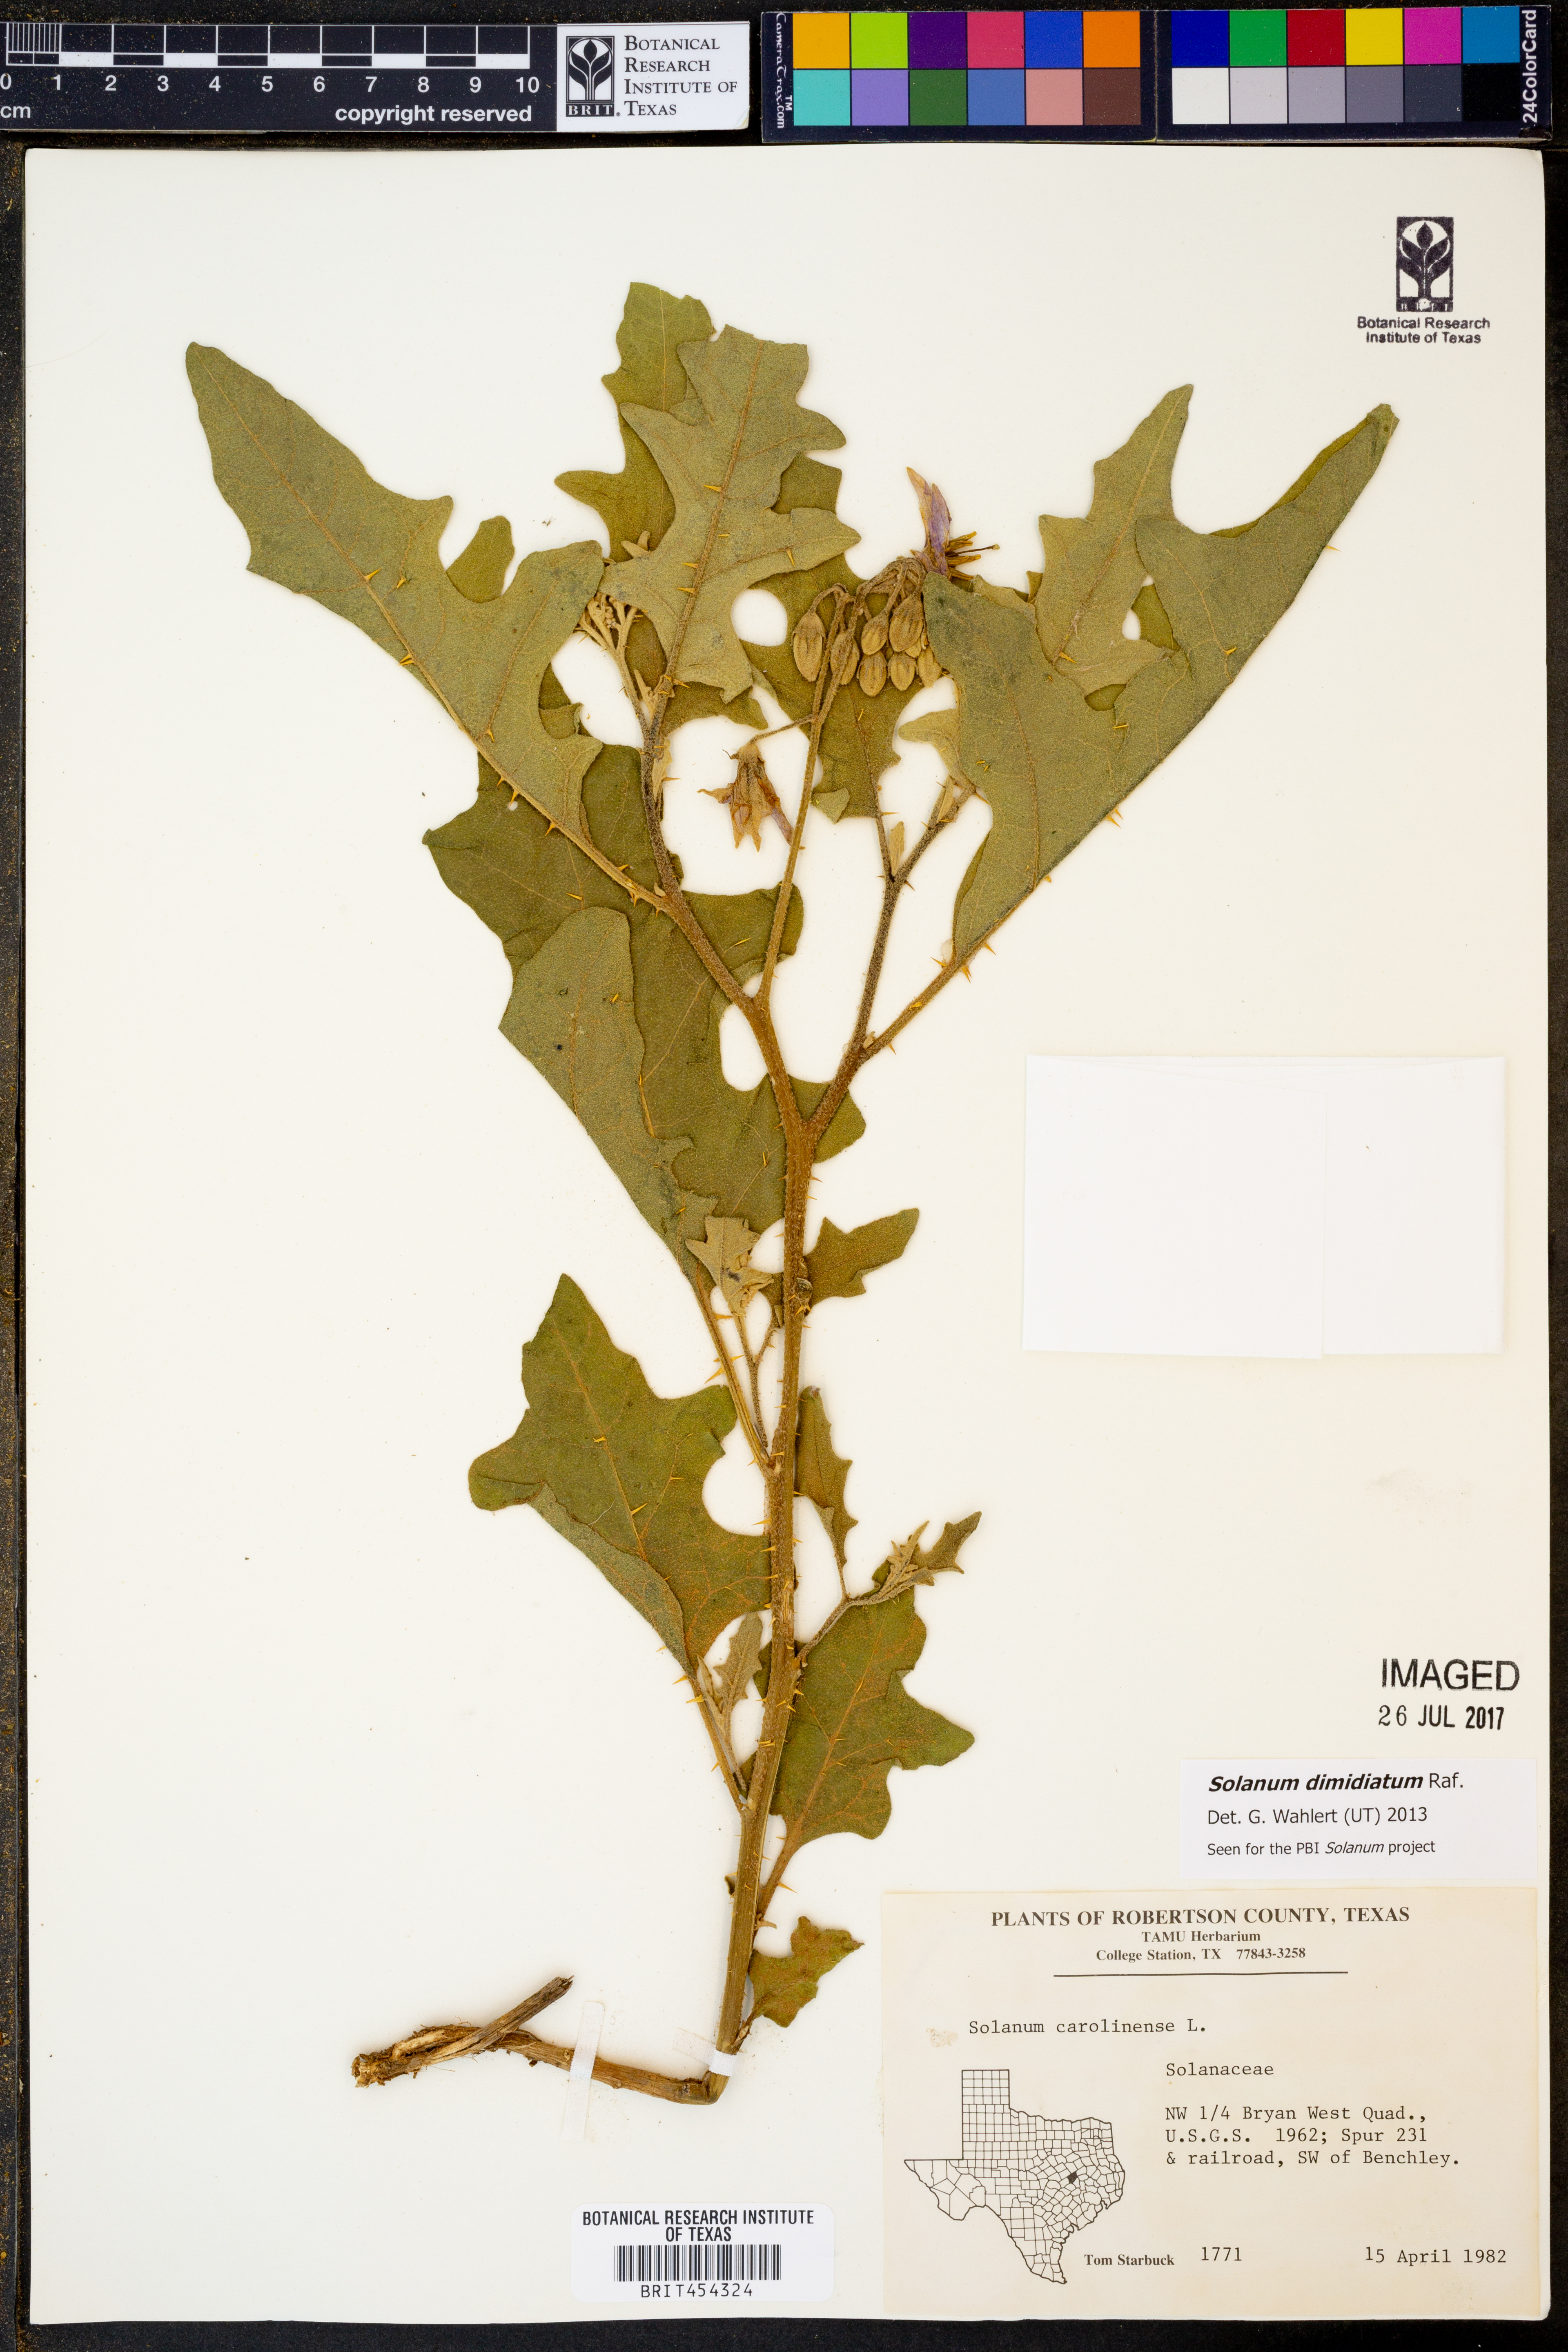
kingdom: Plantae
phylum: Tracheophyta
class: Magnoliopsida
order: Solanales
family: Solanaceae
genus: Solanum
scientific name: Solanum dimidiatum
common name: Carolina horse-nettle
